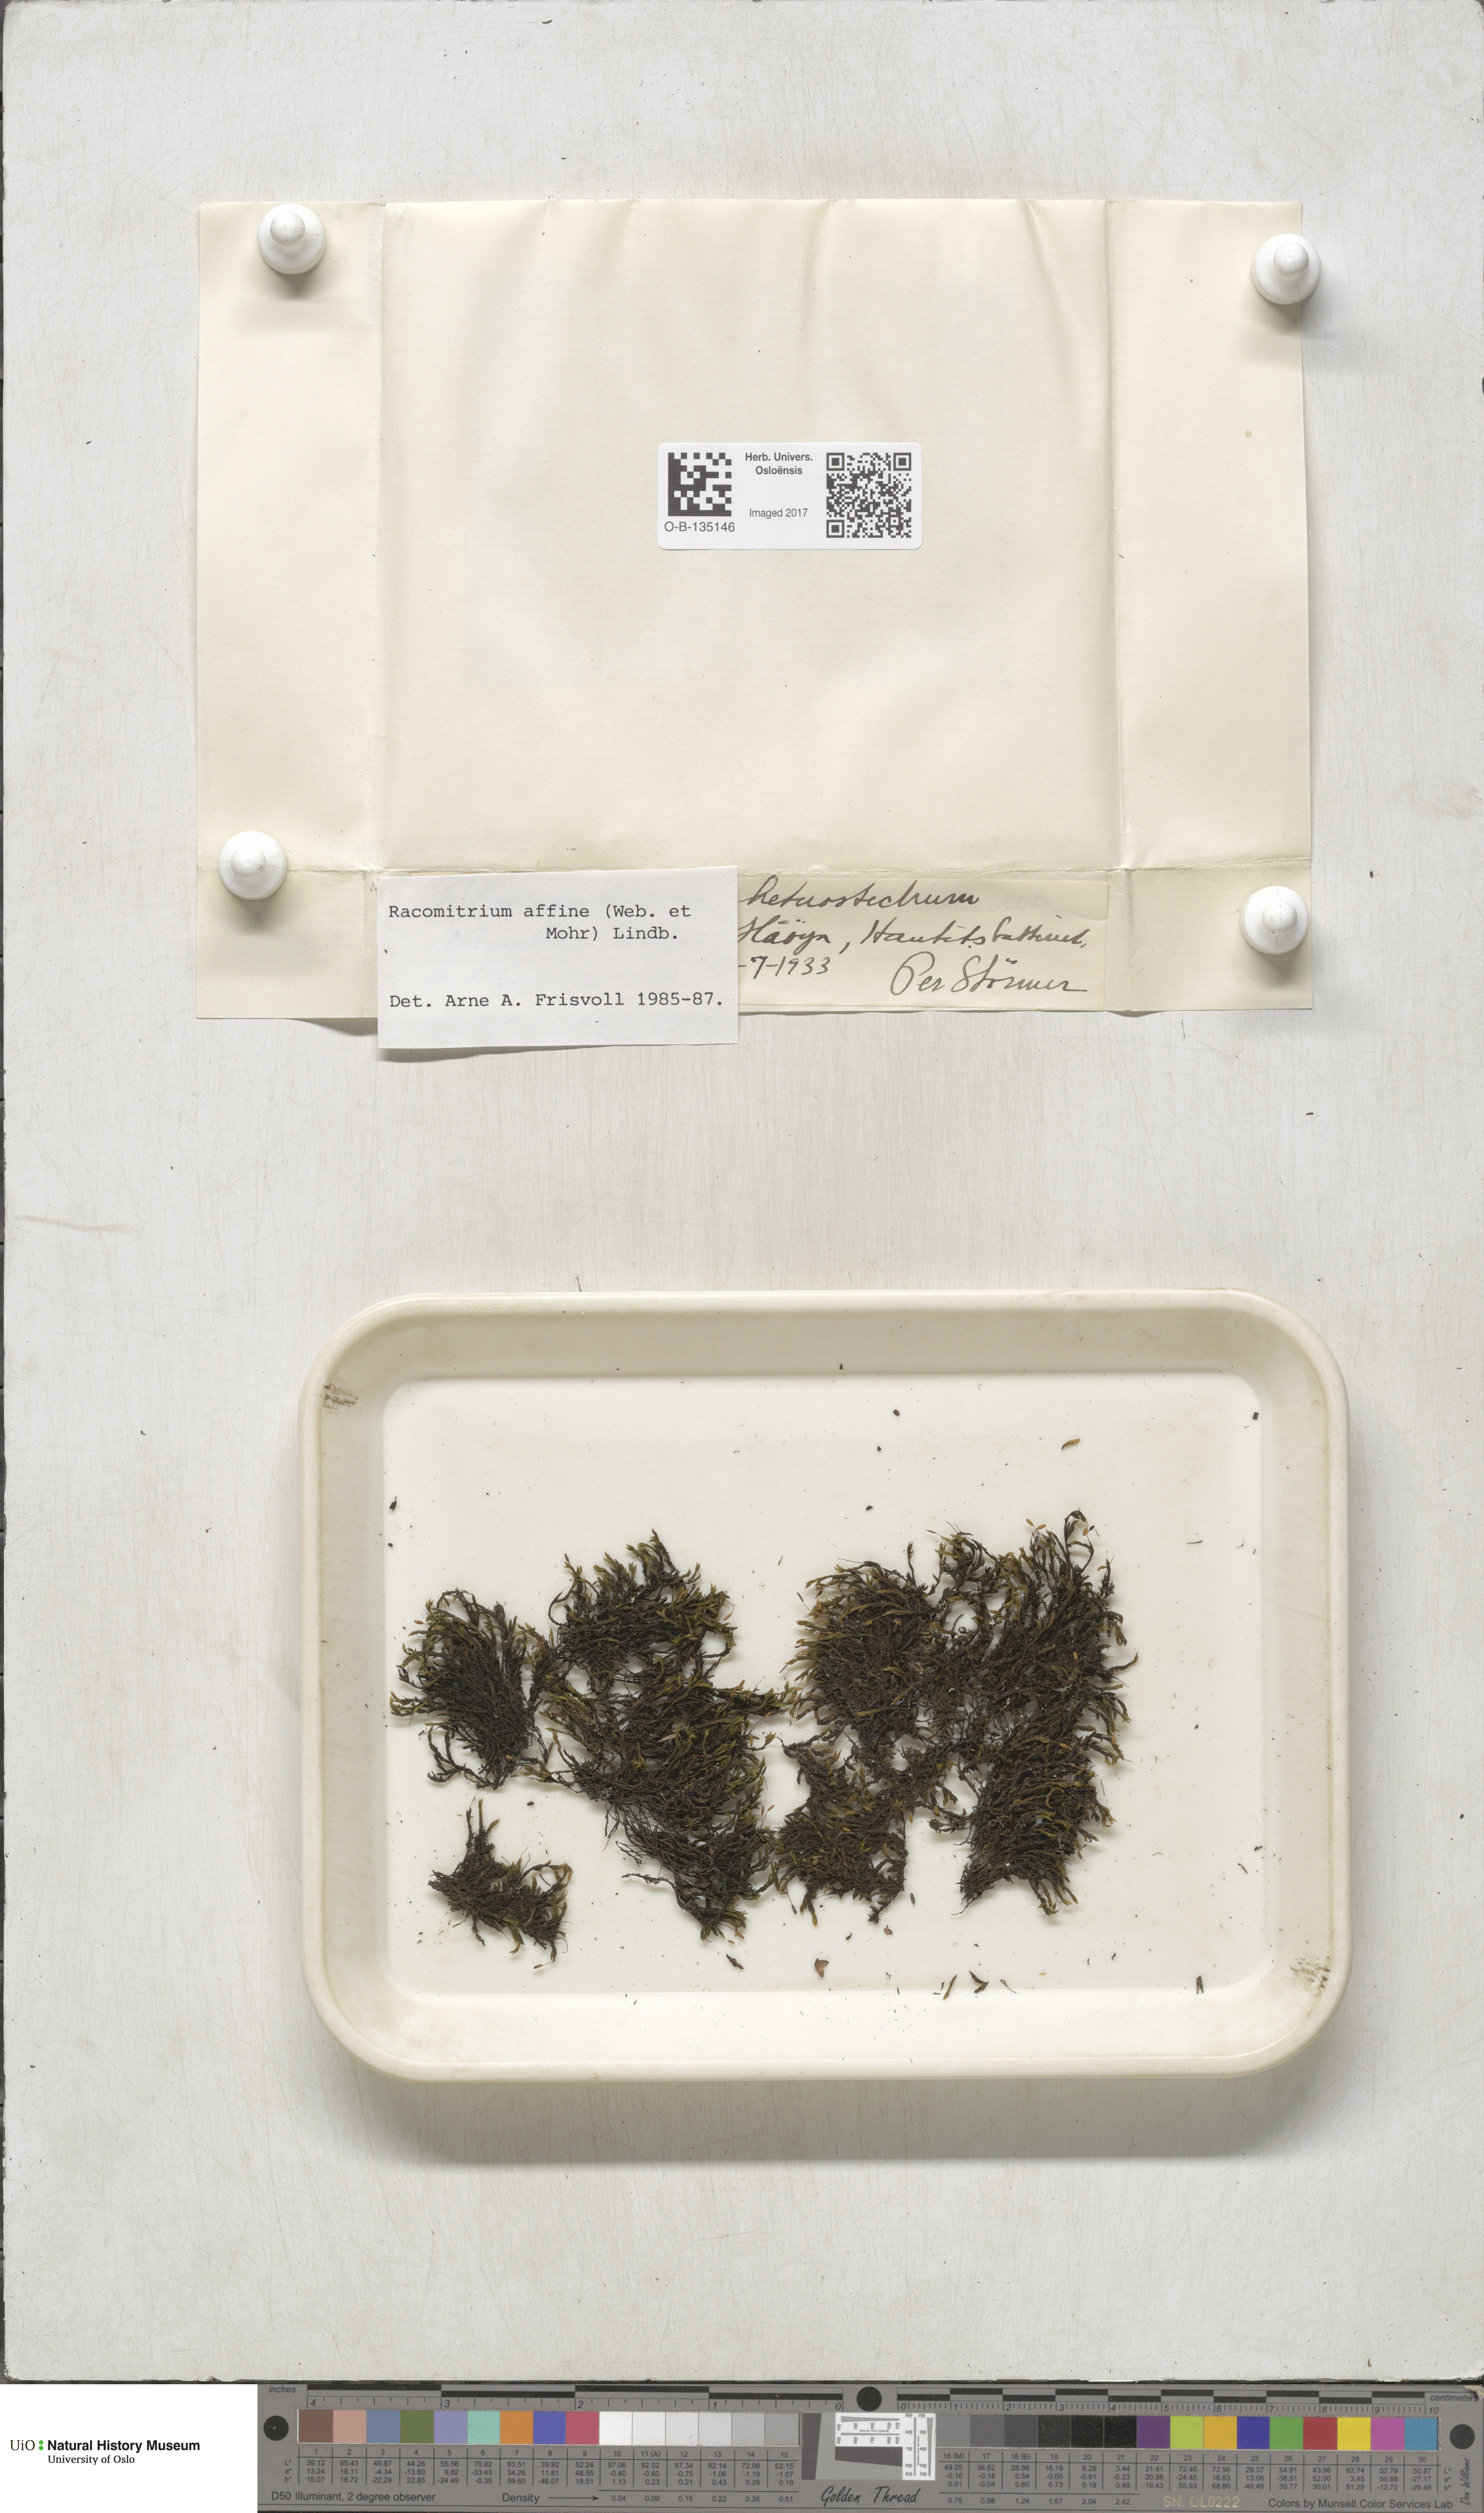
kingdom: Plantae
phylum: Bryophyta
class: Bryopsida
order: Grimmiales
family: Grimmiaceae
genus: Bucklandiella
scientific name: Bucklandiella affinis
